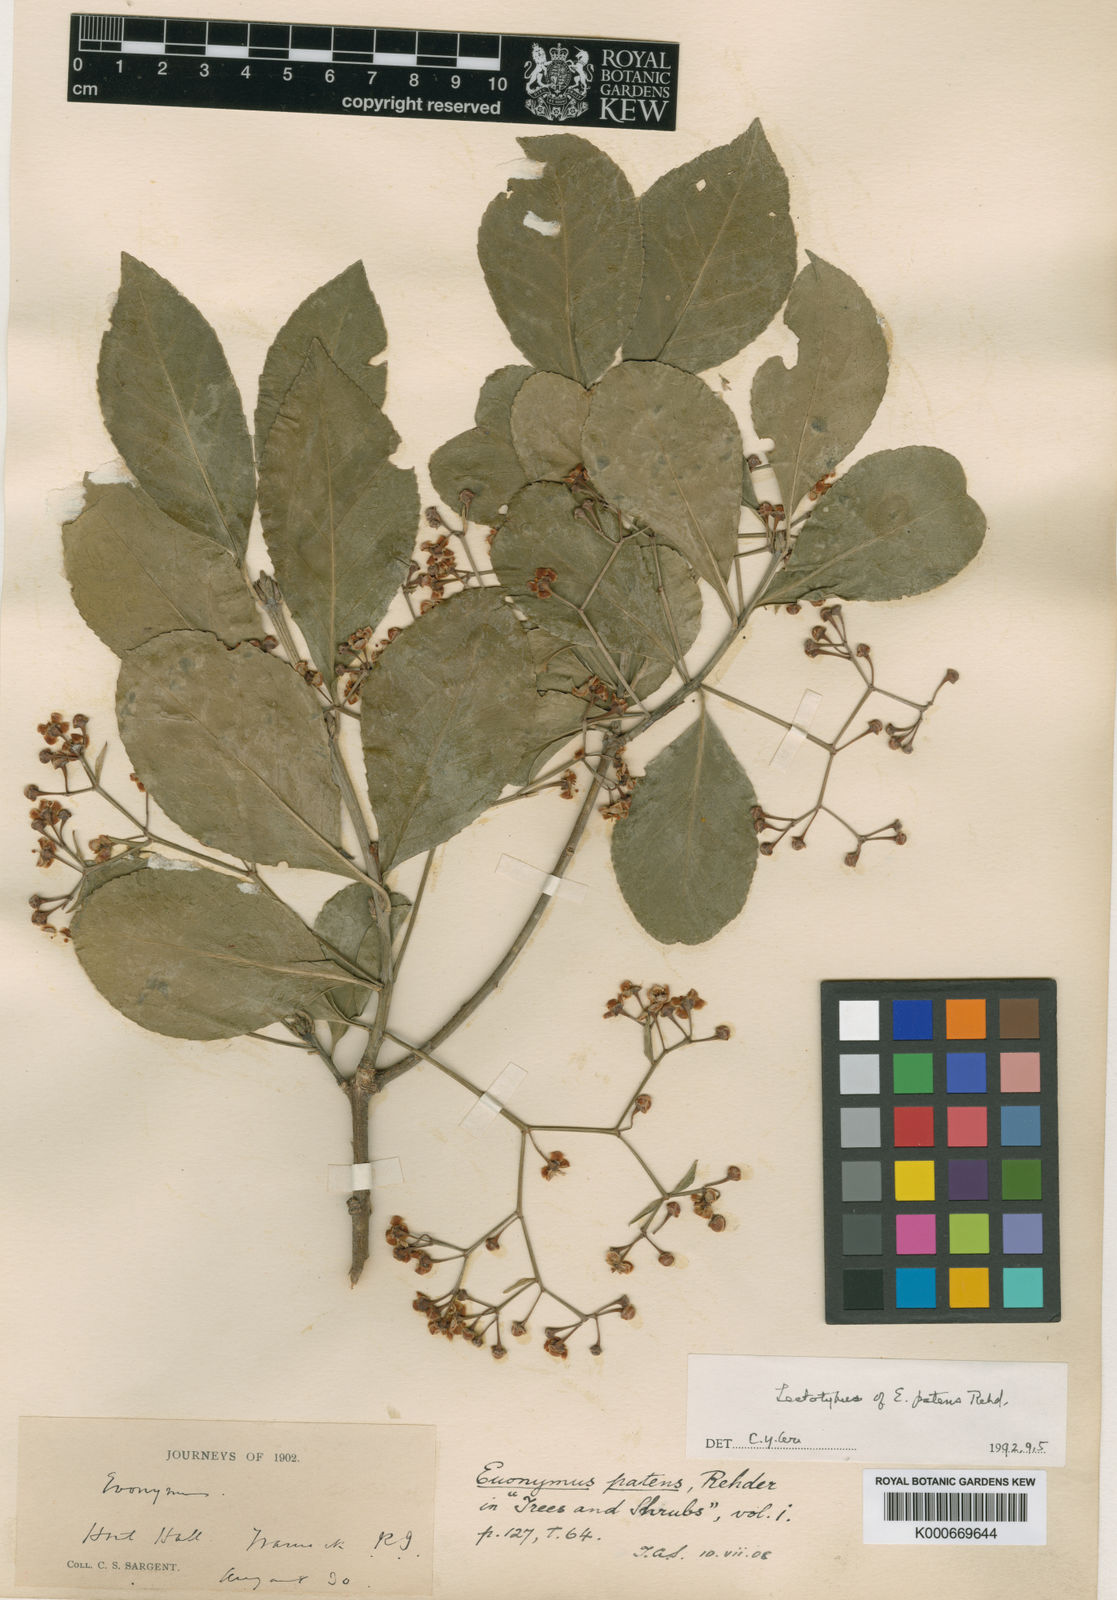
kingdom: Plantae
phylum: Tracheophyta
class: Magnoliopsida
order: Celastrales
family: Celastraceae
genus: Euonymus
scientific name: Euonymus fortunei
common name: Climbing euonymus
